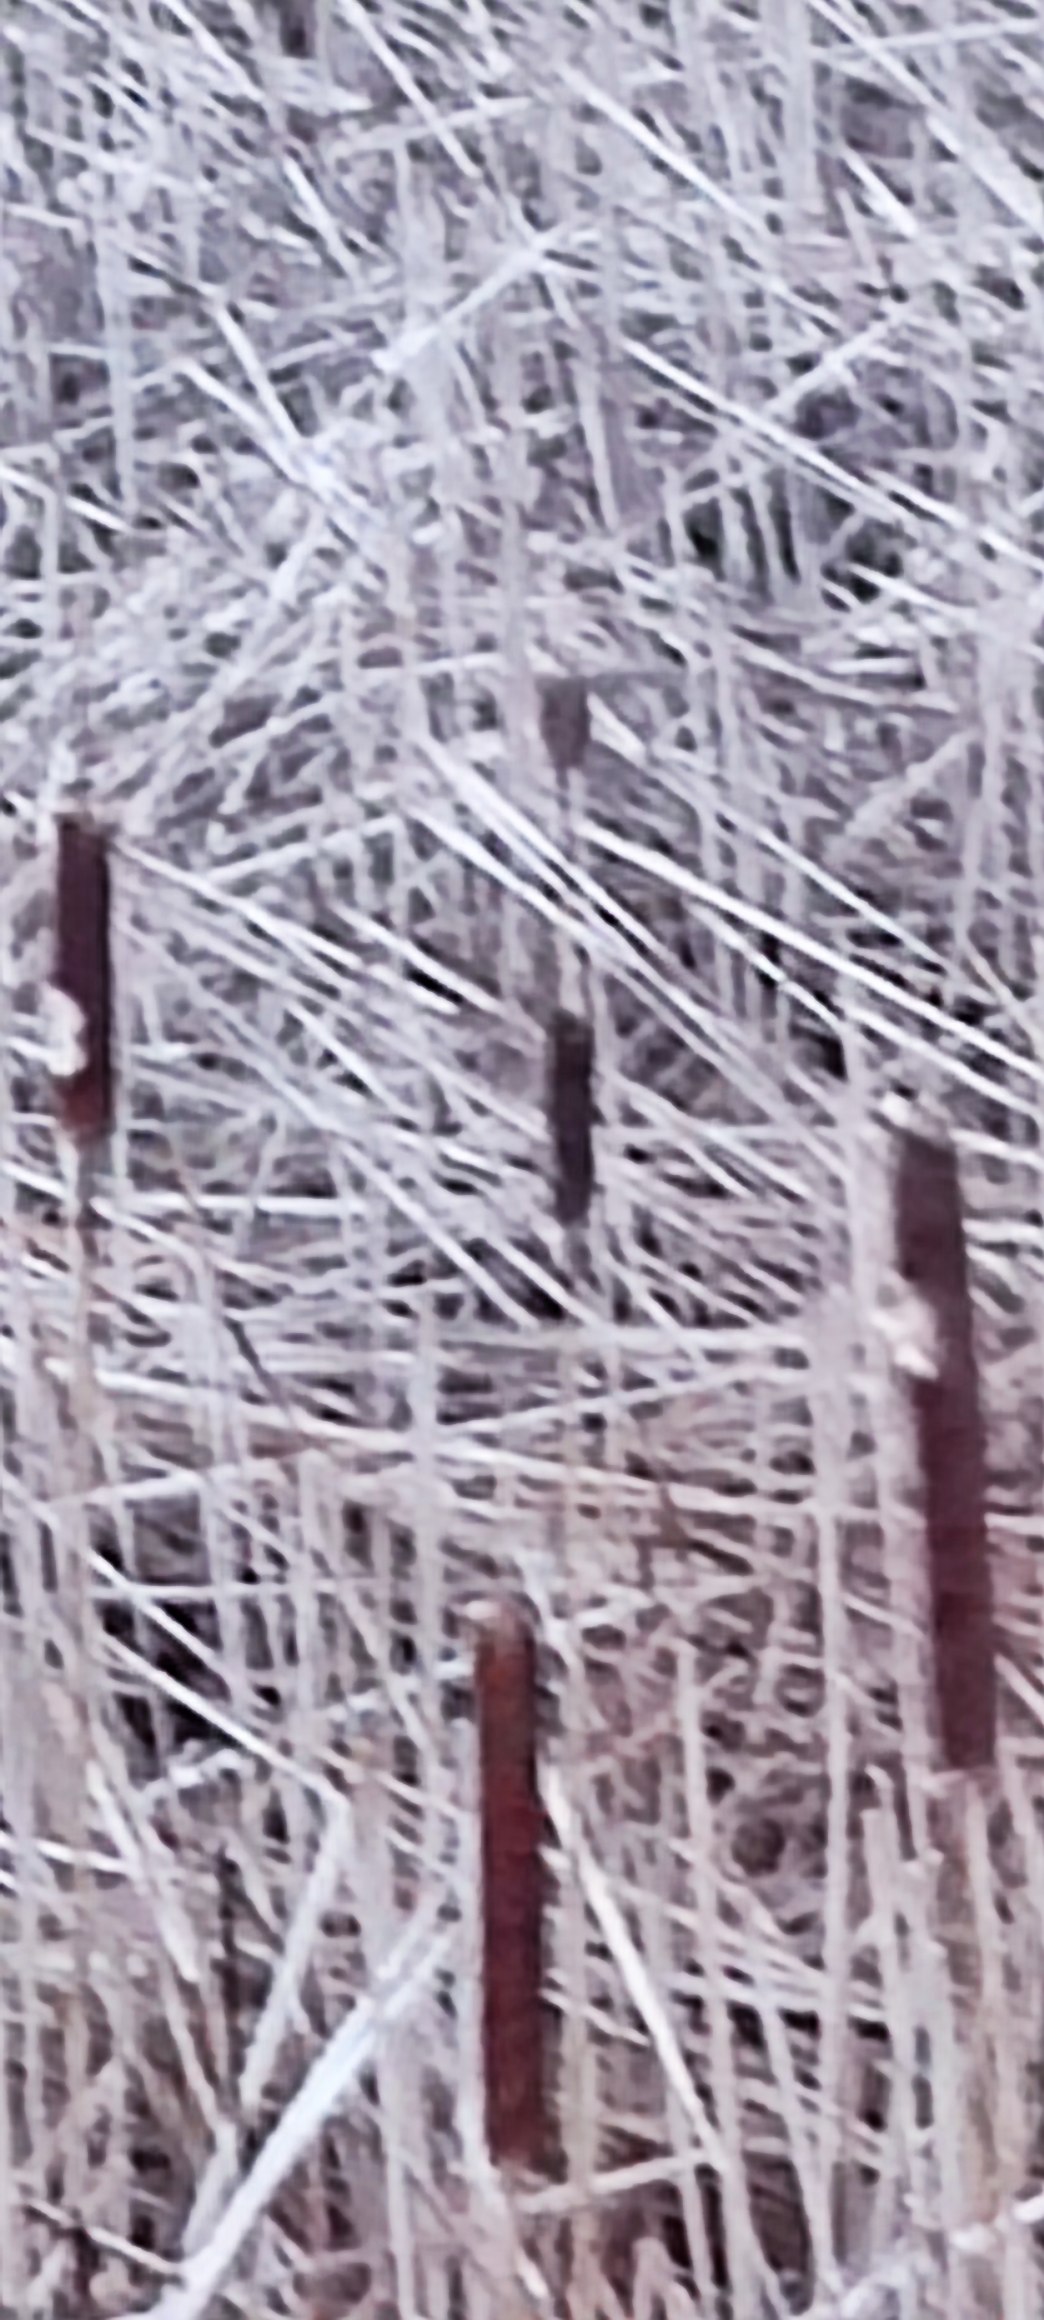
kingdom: Plantae
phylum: Tracheophyta
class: Liliopsida
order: Poales
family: Typhaceae
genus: Typha
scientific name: Typha angustifolia
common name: Smalbladet dunhammer
